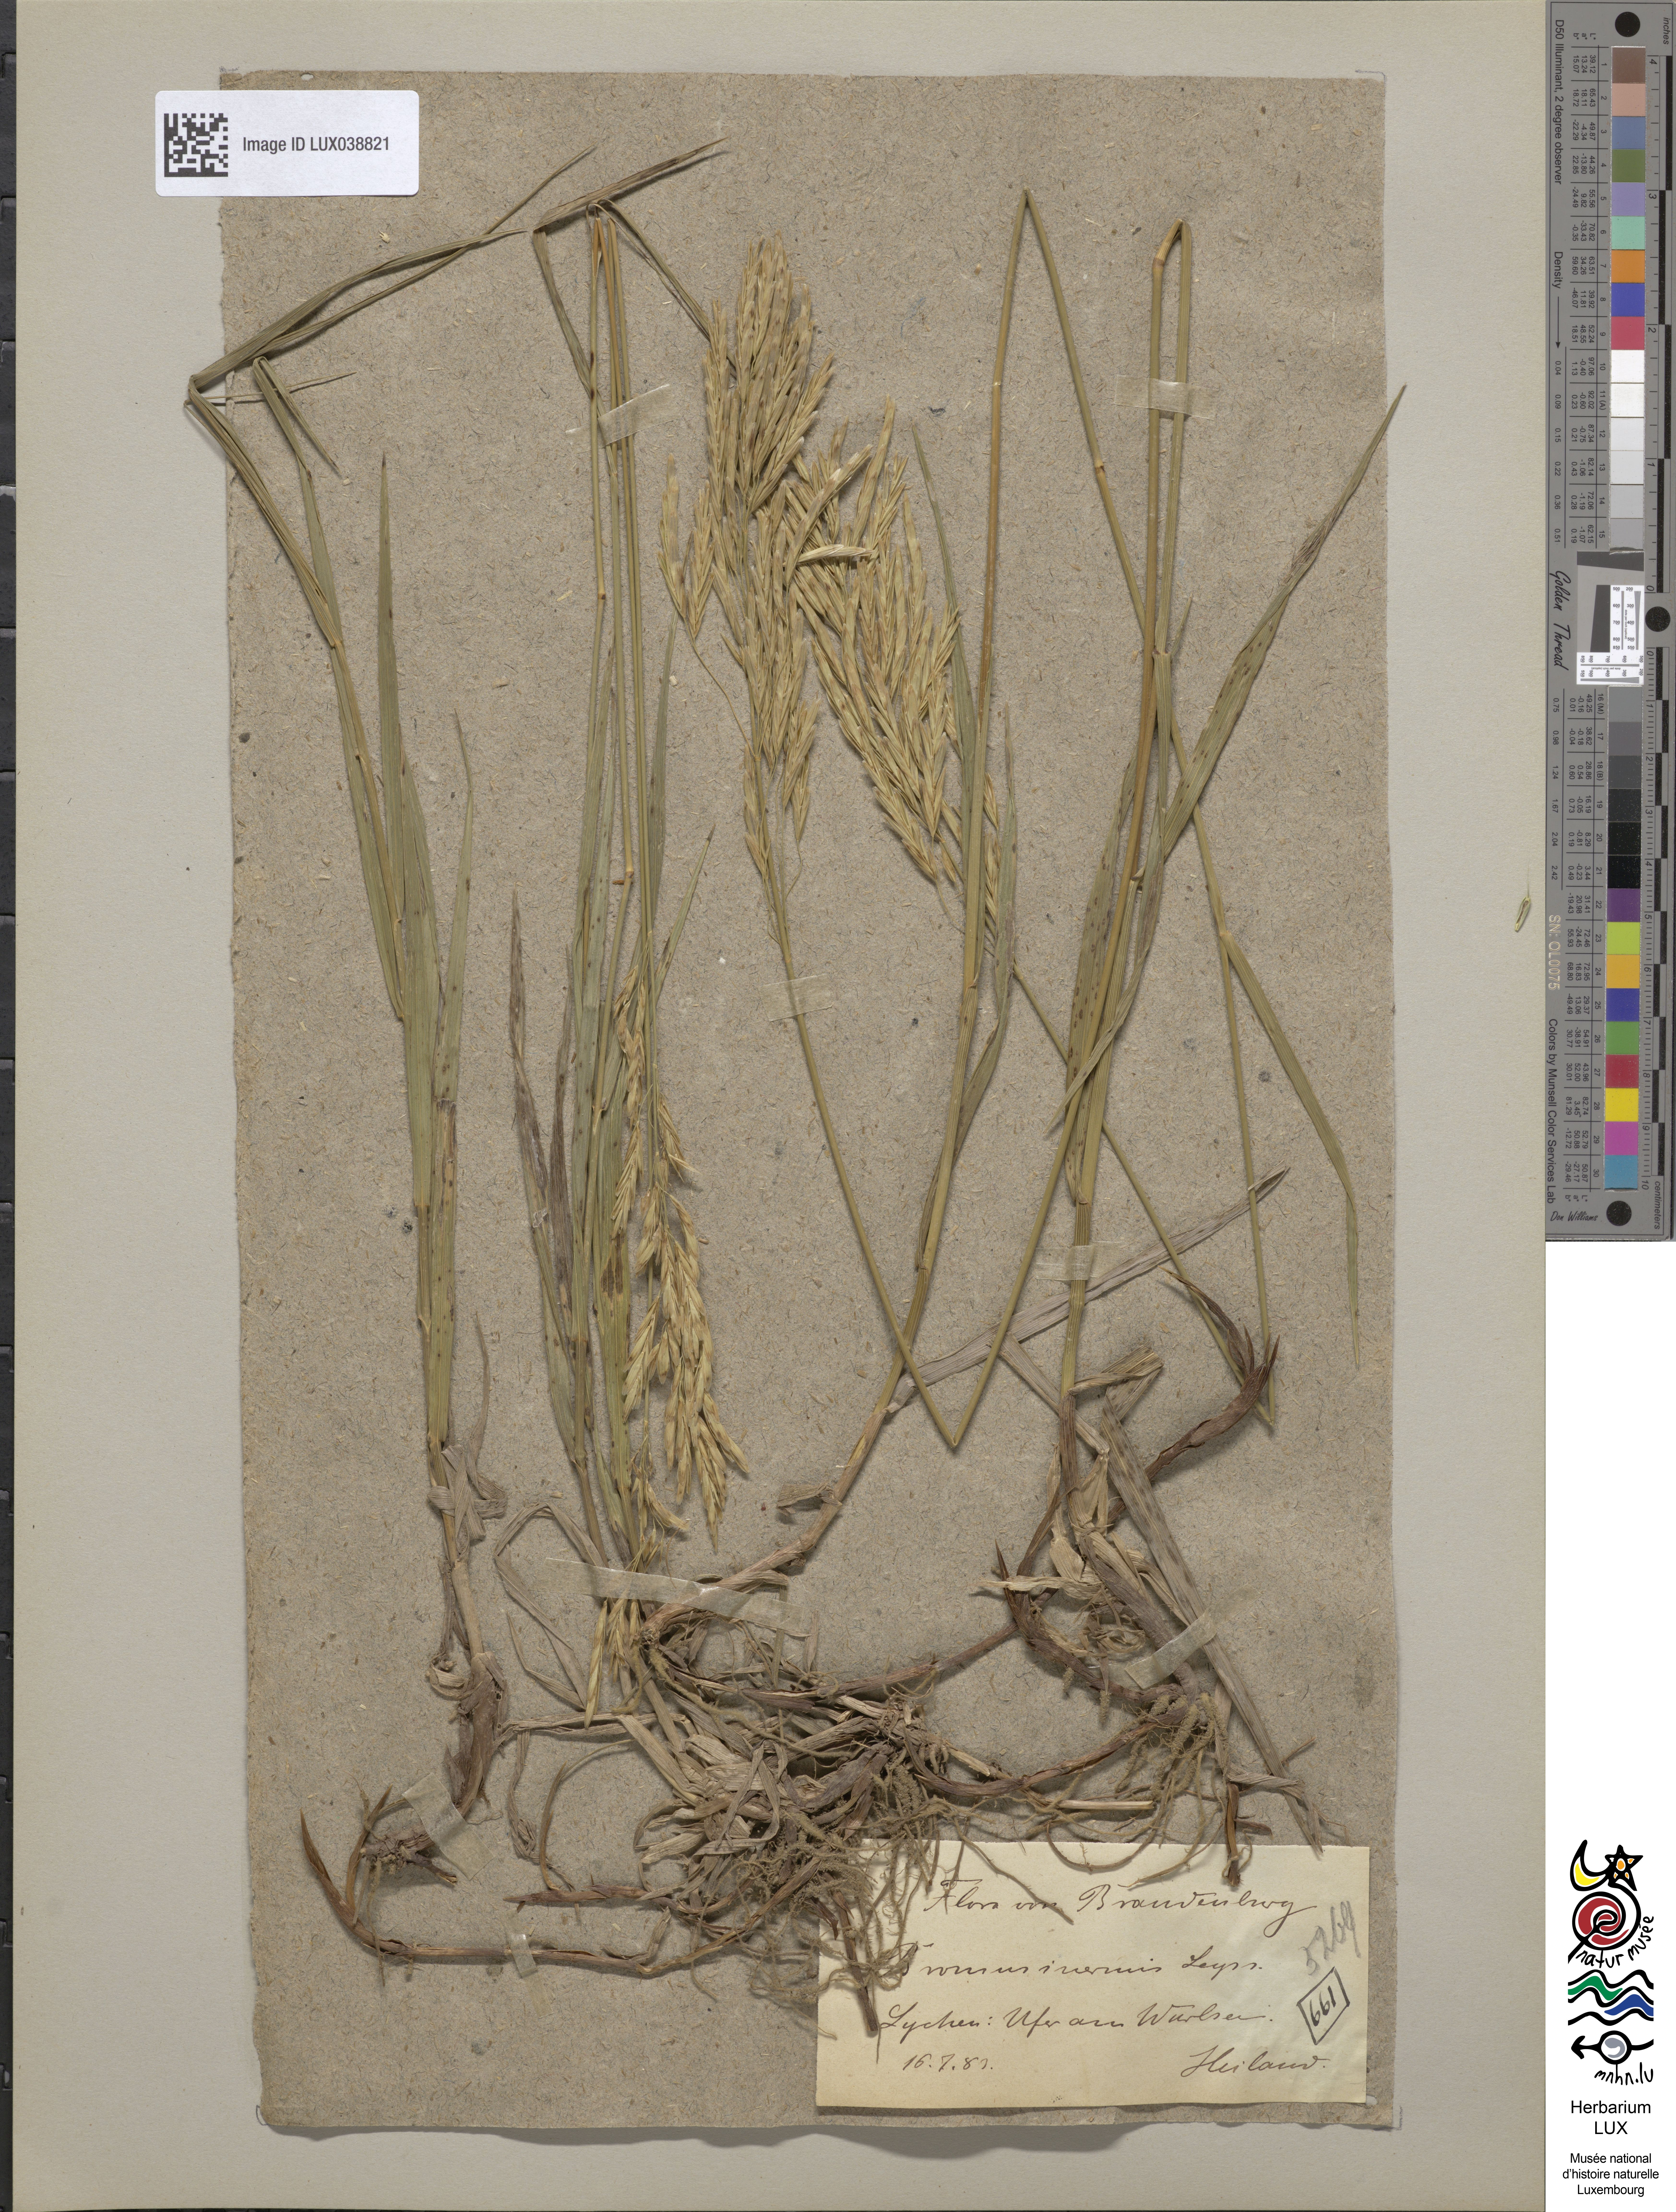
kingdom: Plantae
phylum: Tracheophyta
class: Liliopsida
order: Poales
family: Poaceae
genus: Bromus
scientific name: Bromus inermis
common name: Smooth brome
